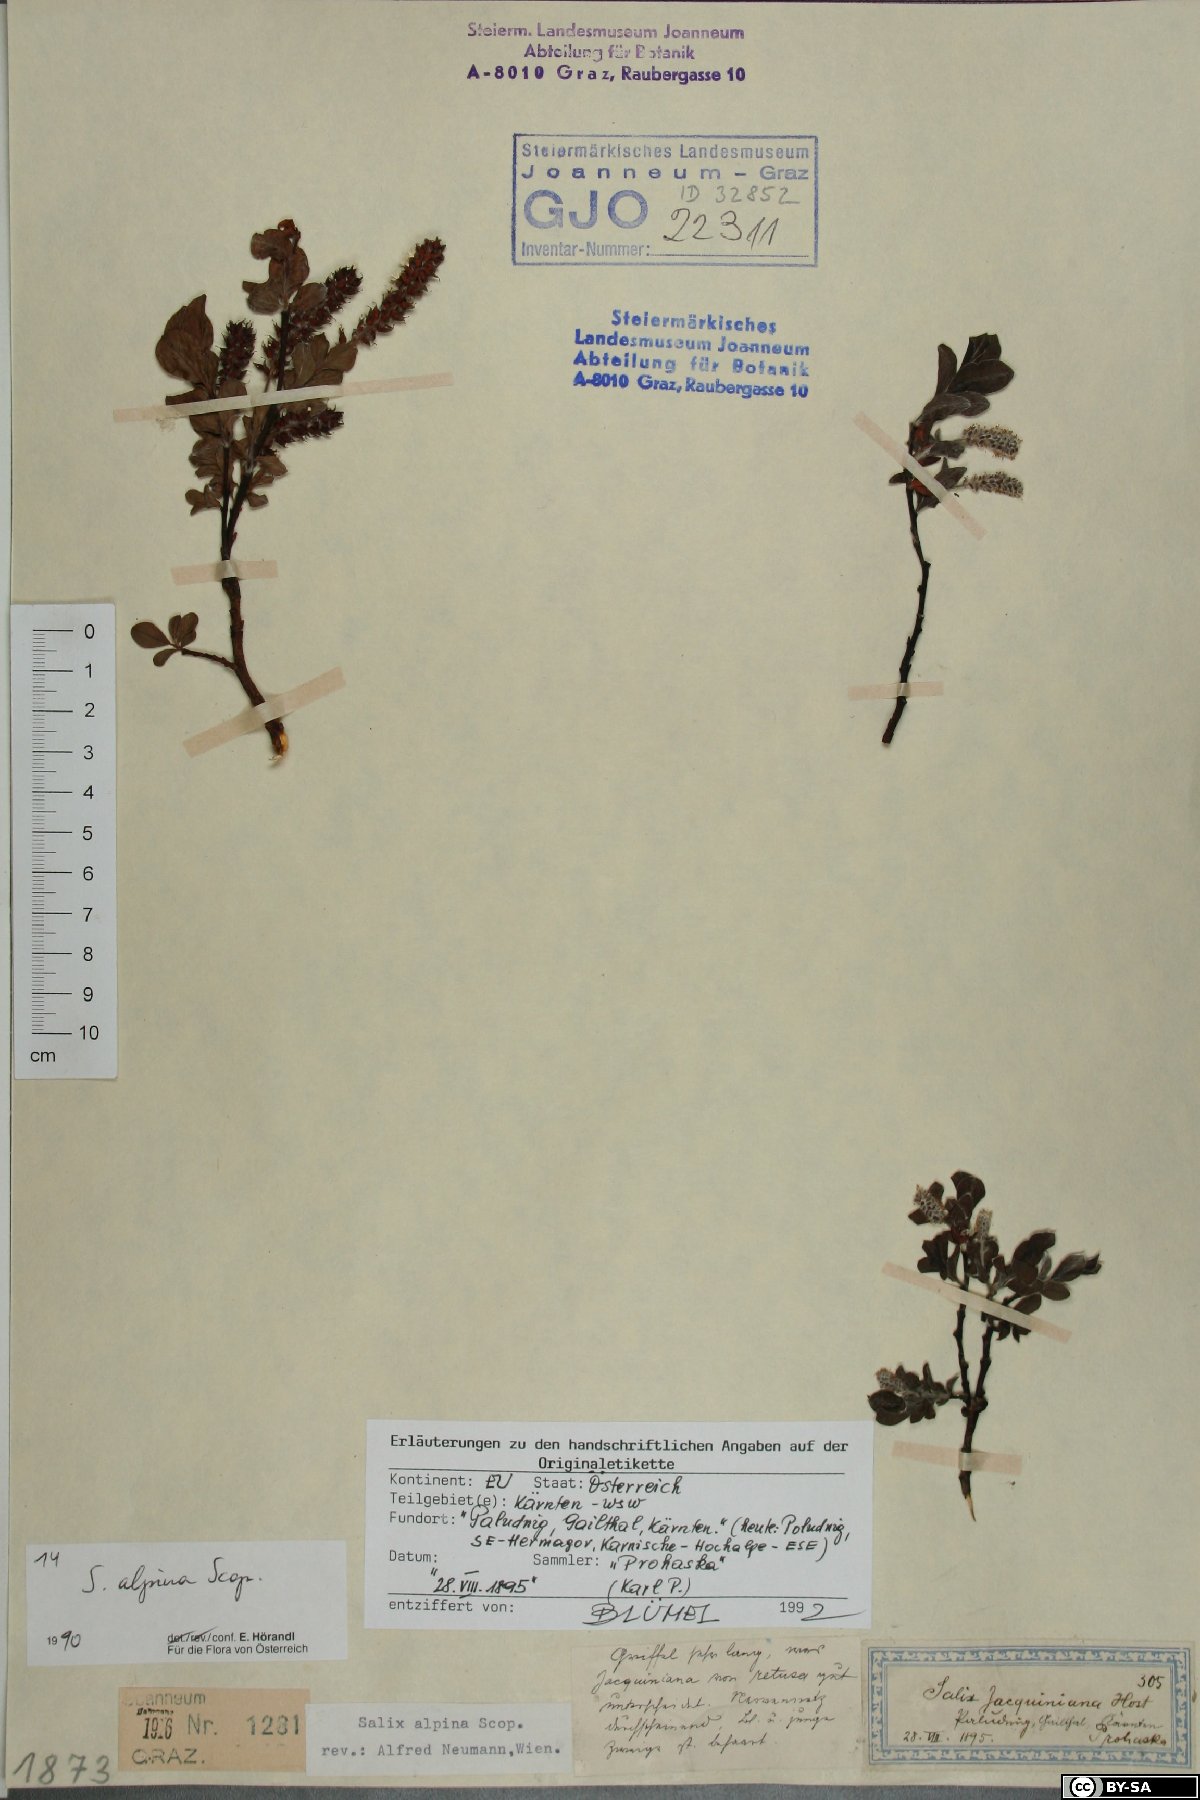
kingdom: Plantae
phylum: Tracheophyta
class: Magnoliopsida
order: Malpighiales
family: Salicaceae
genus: Salix
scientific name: Salix alpina
